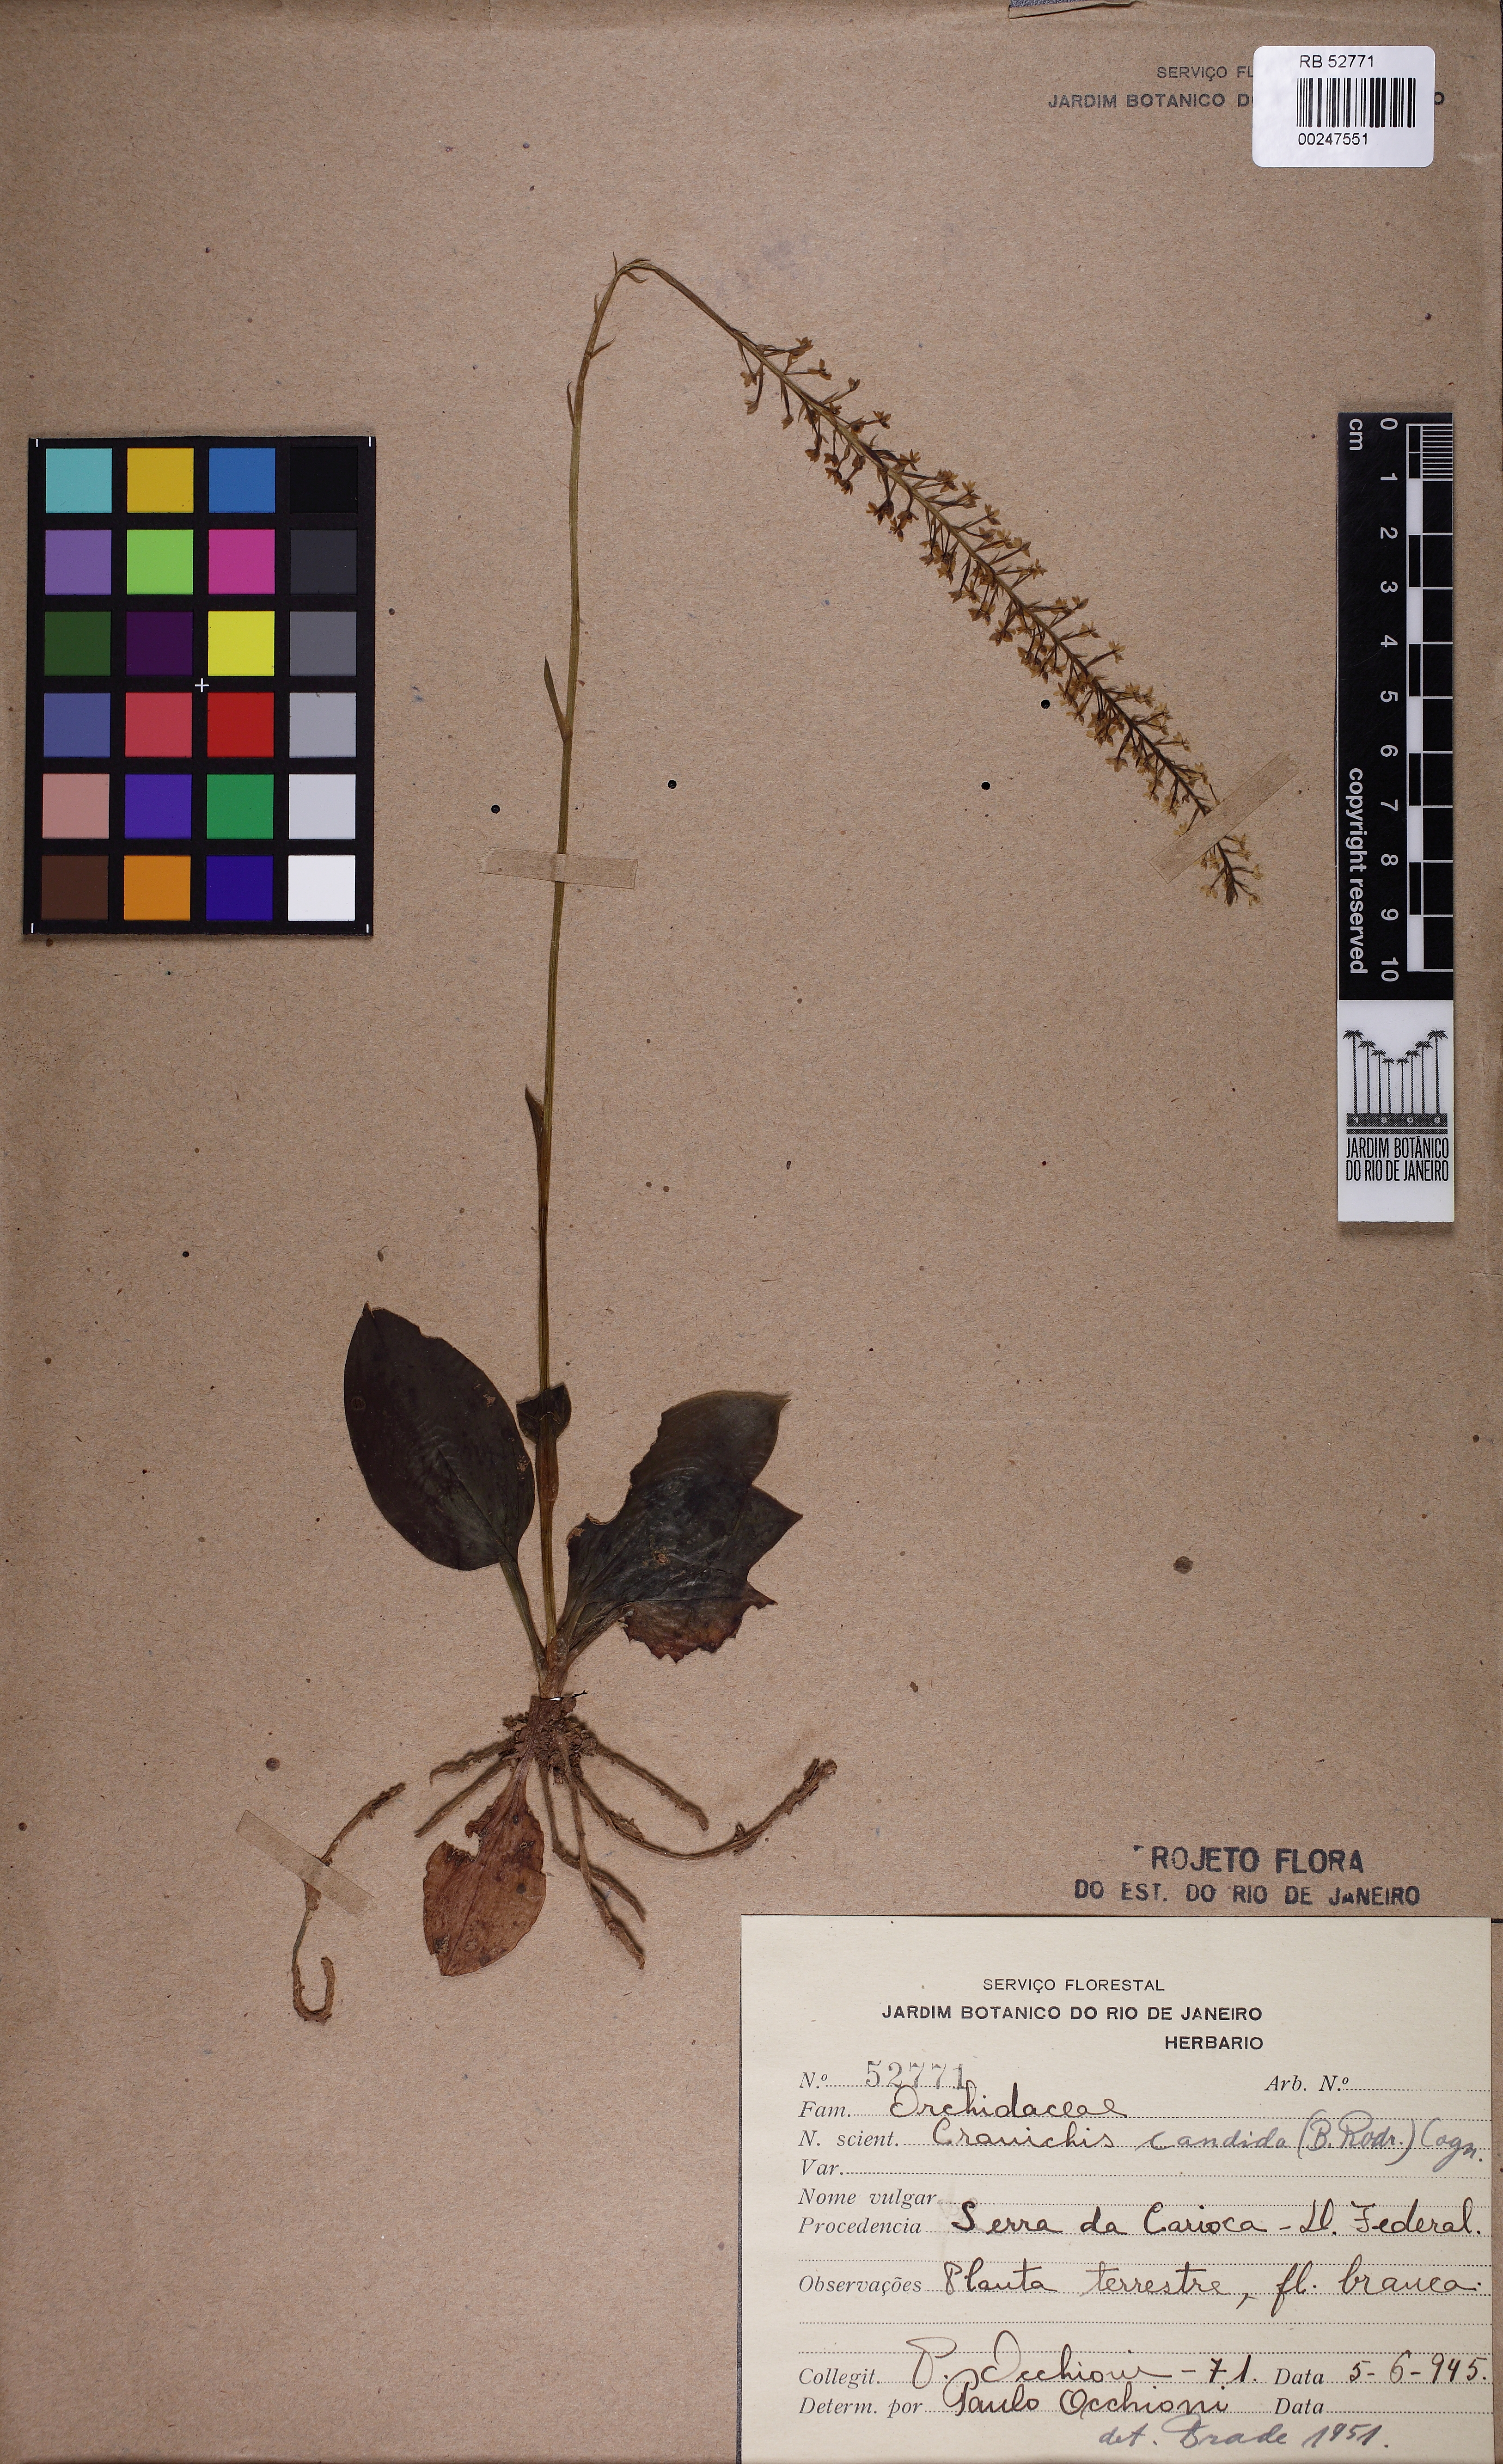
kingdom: Plantae
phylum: Tracheophyta
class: Liliopsida
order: Asparagales
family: Orchidaceae
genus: Cranichis
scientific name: Cranichis candida
